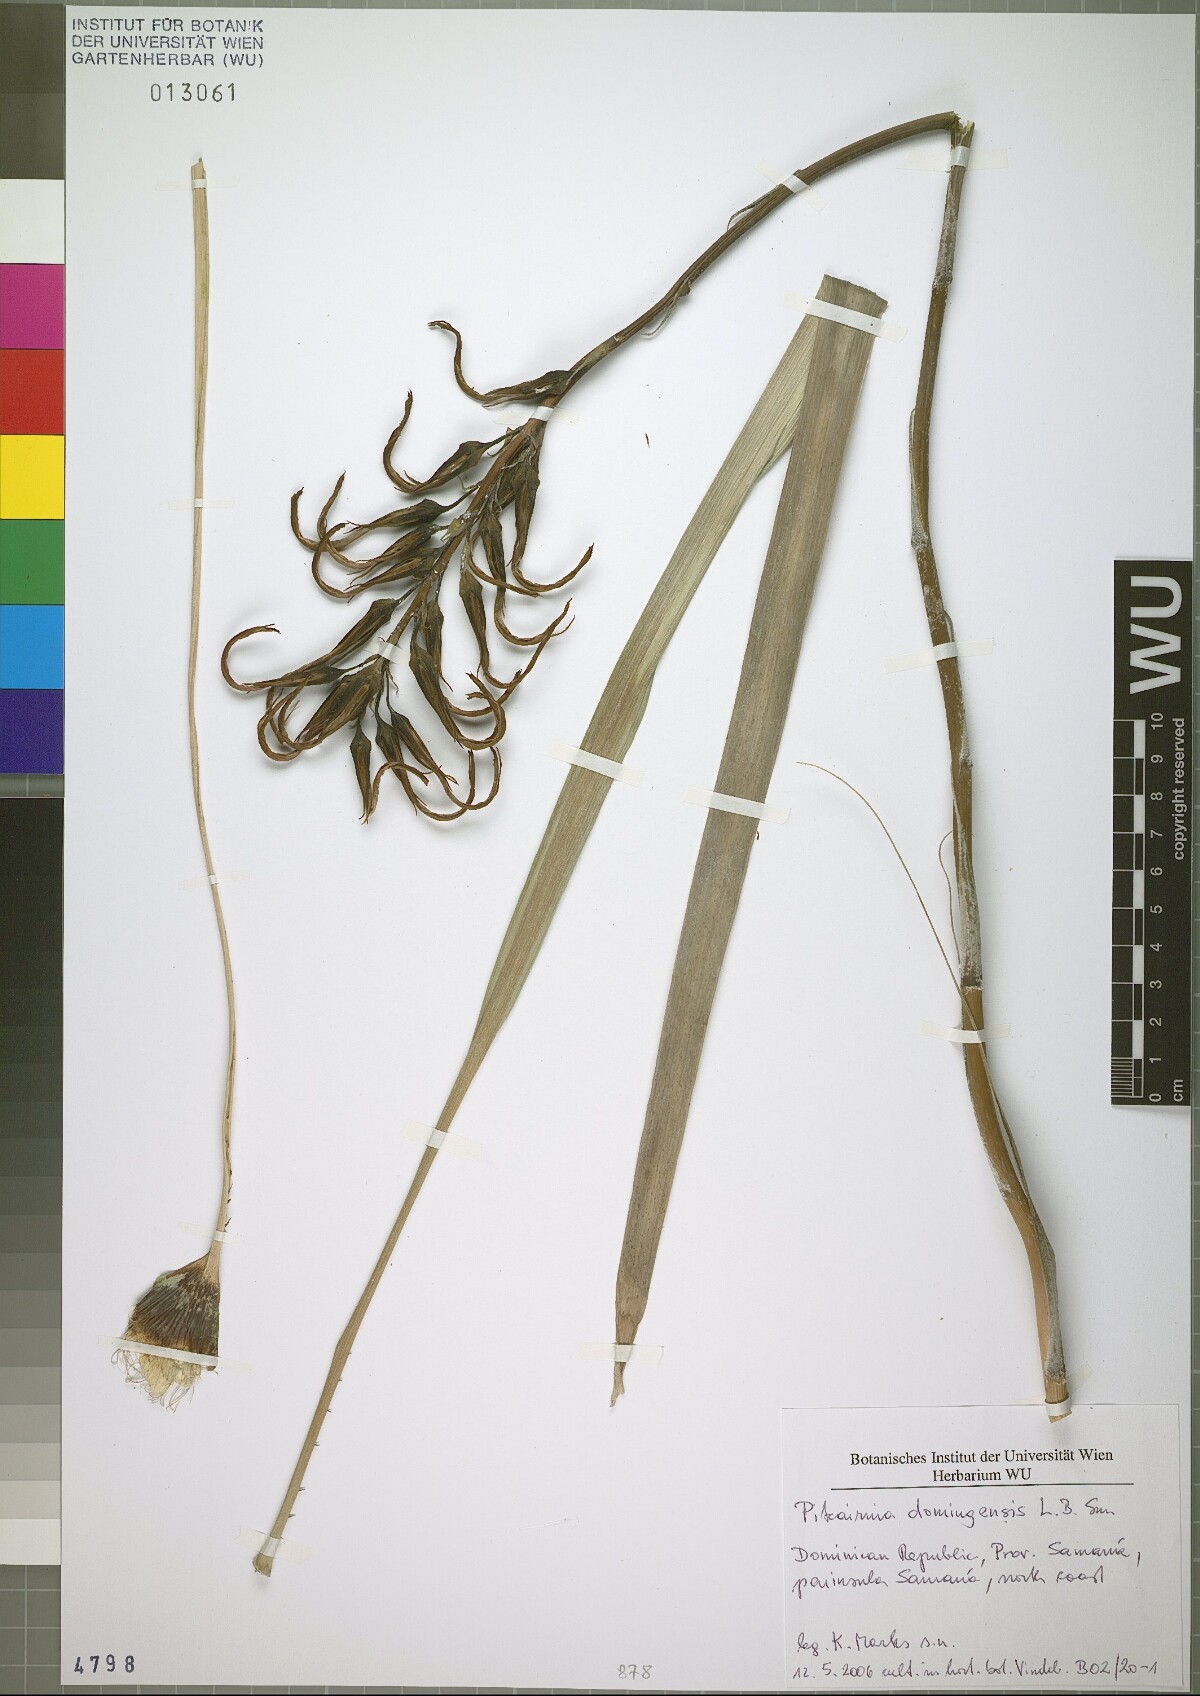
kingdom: Plantae
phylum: Tracheophyta
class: Liliopsida
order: Poales
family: Bromeliaceae
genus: Pitcairnia
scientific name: Pitcairnia domingensis
